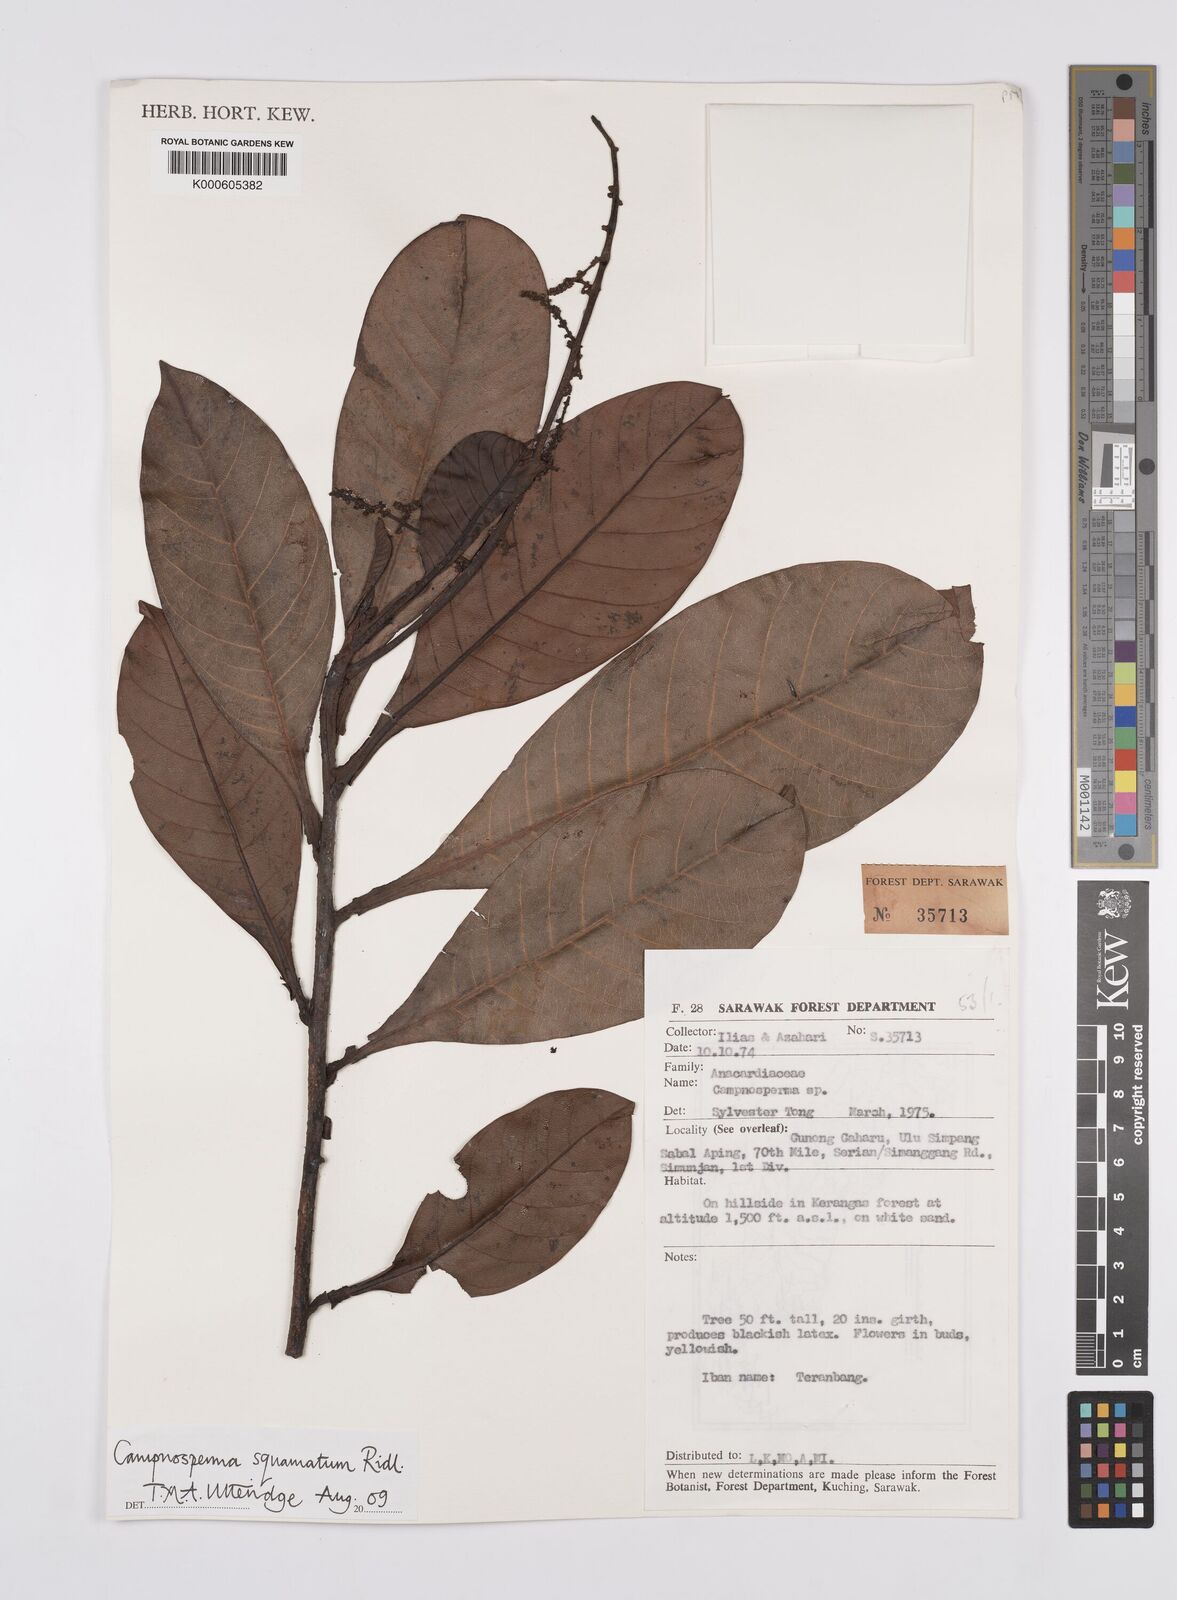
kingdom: Plantae
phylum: Tracheophyta
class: Magnoliopsida
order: Sapindales
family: Anacardiaceae
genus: Campnosperma
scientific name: Campnosperma
